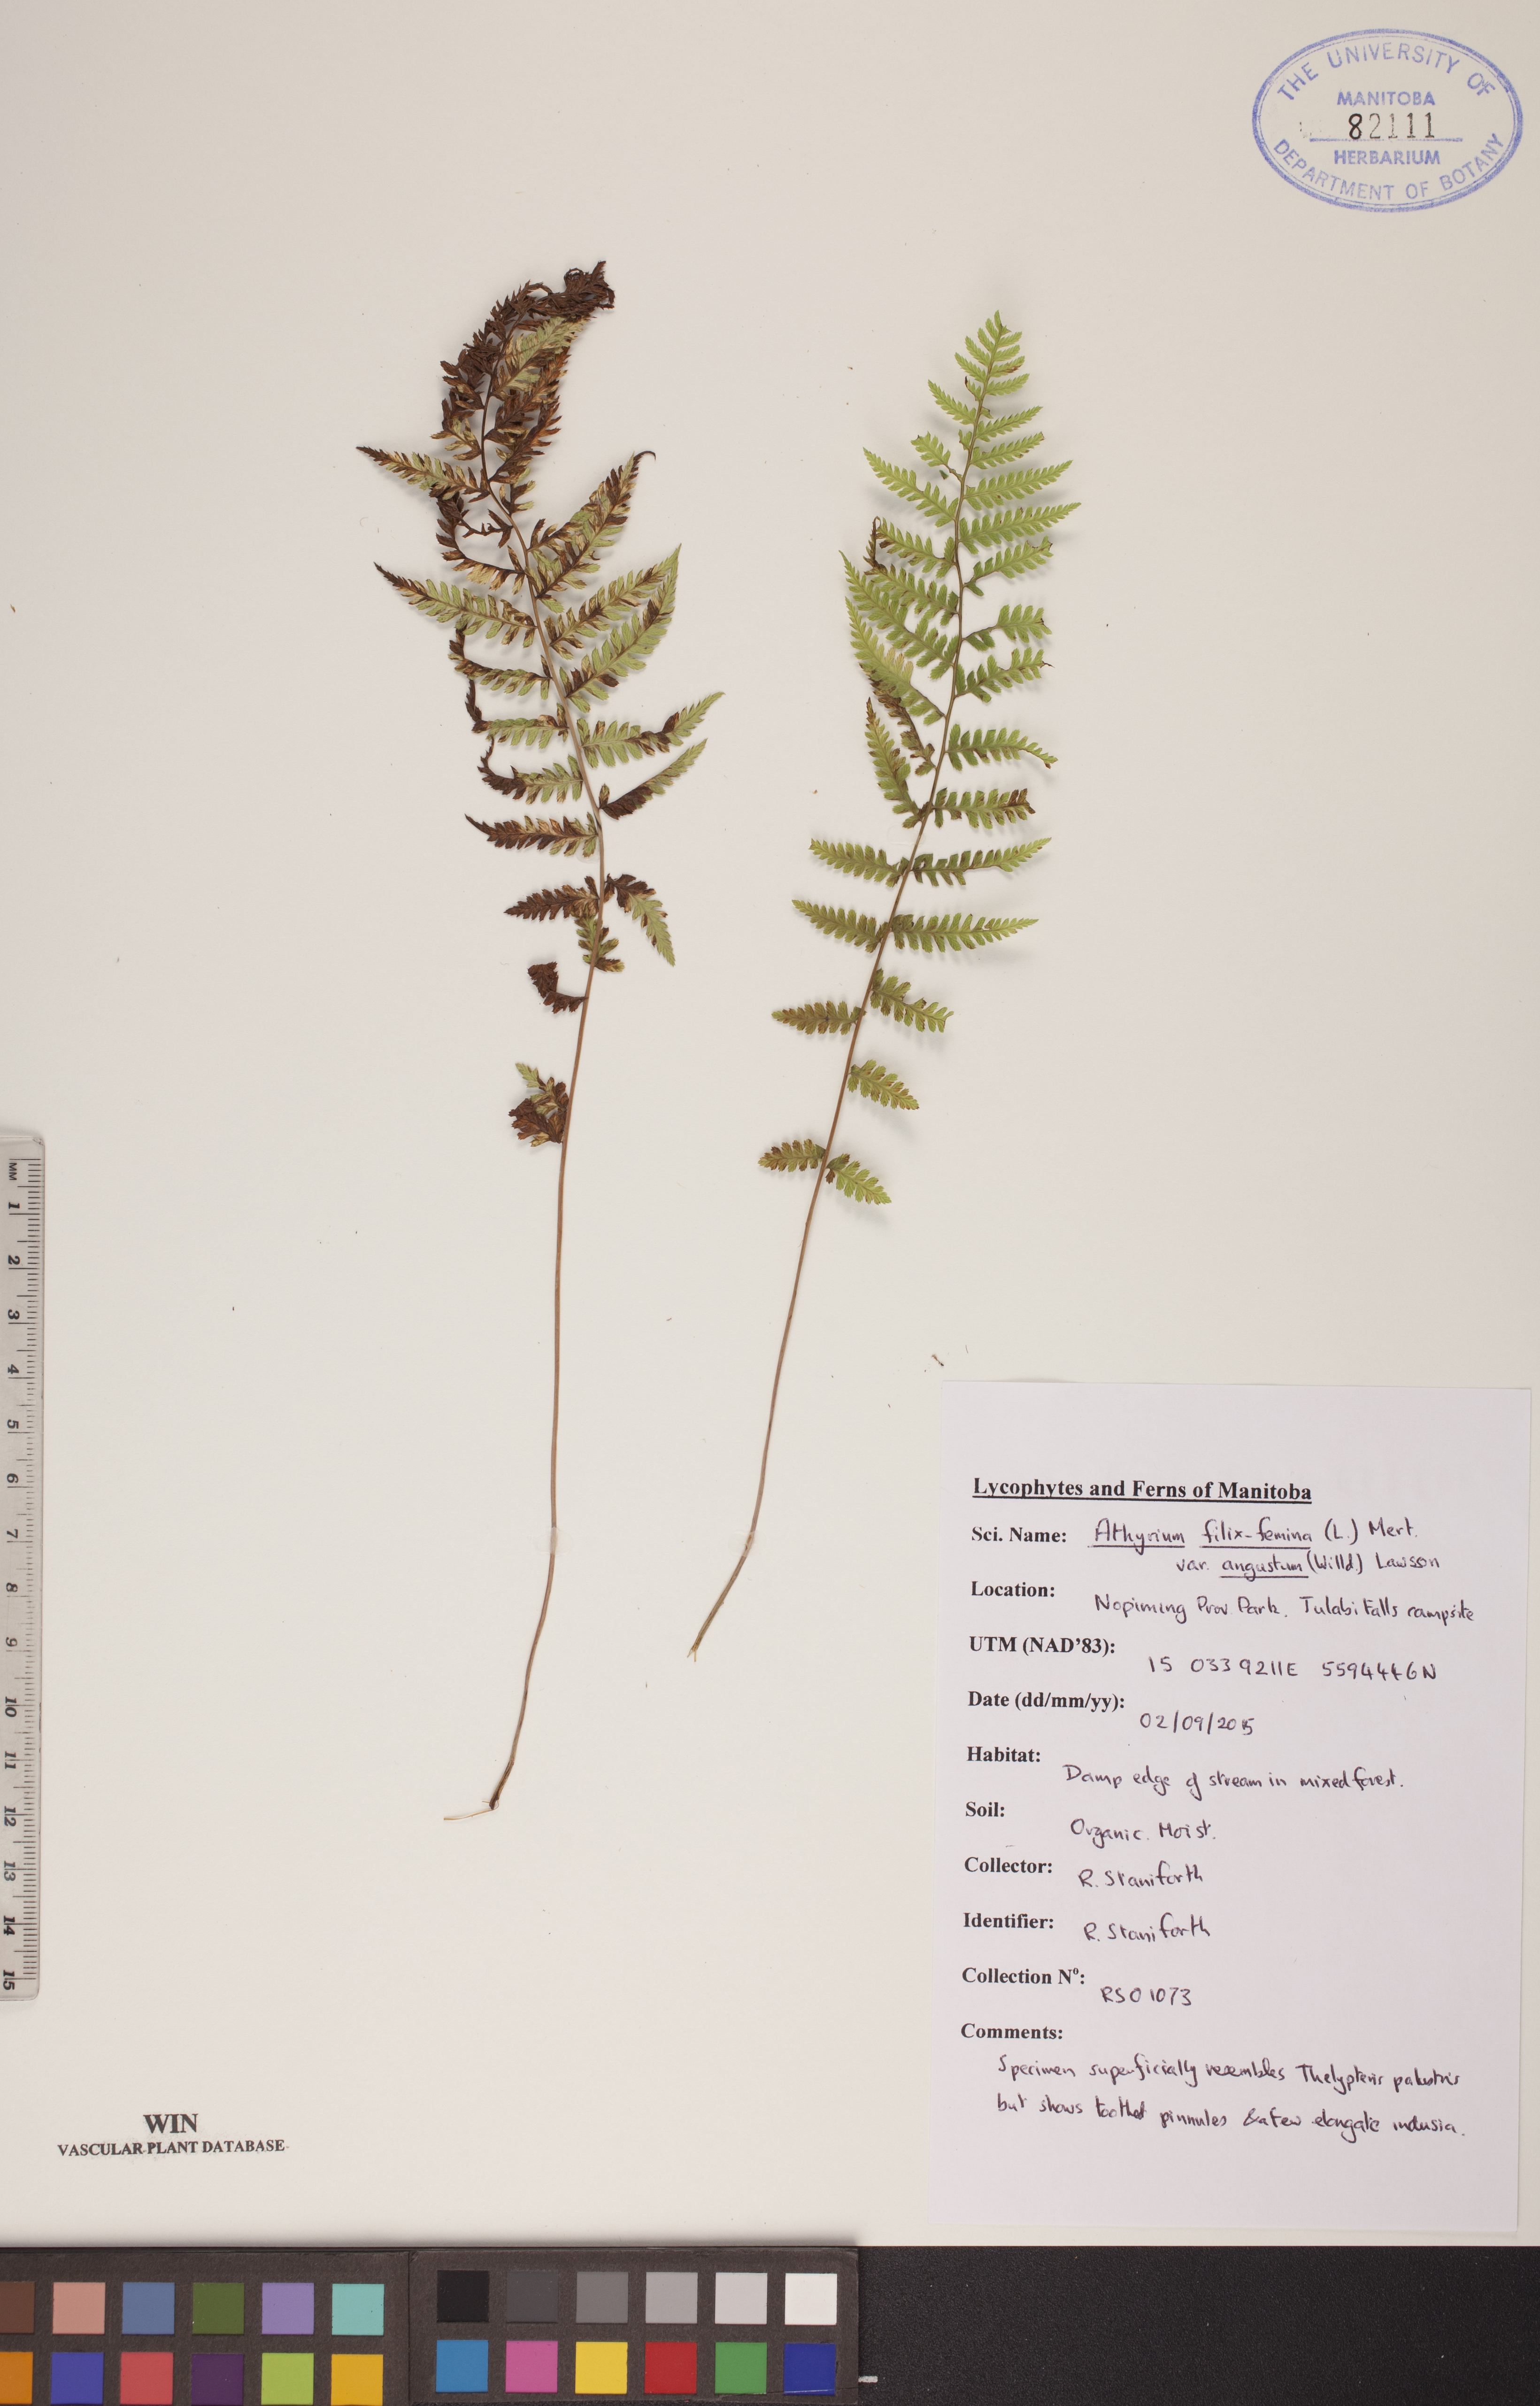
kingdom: Plantae
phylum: Tracheophyta
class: Polypodiopsida
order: Polypodiales
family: Athyriaceae
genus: Athyrium
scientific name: Athyrium angustum
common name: Northern lady fern
